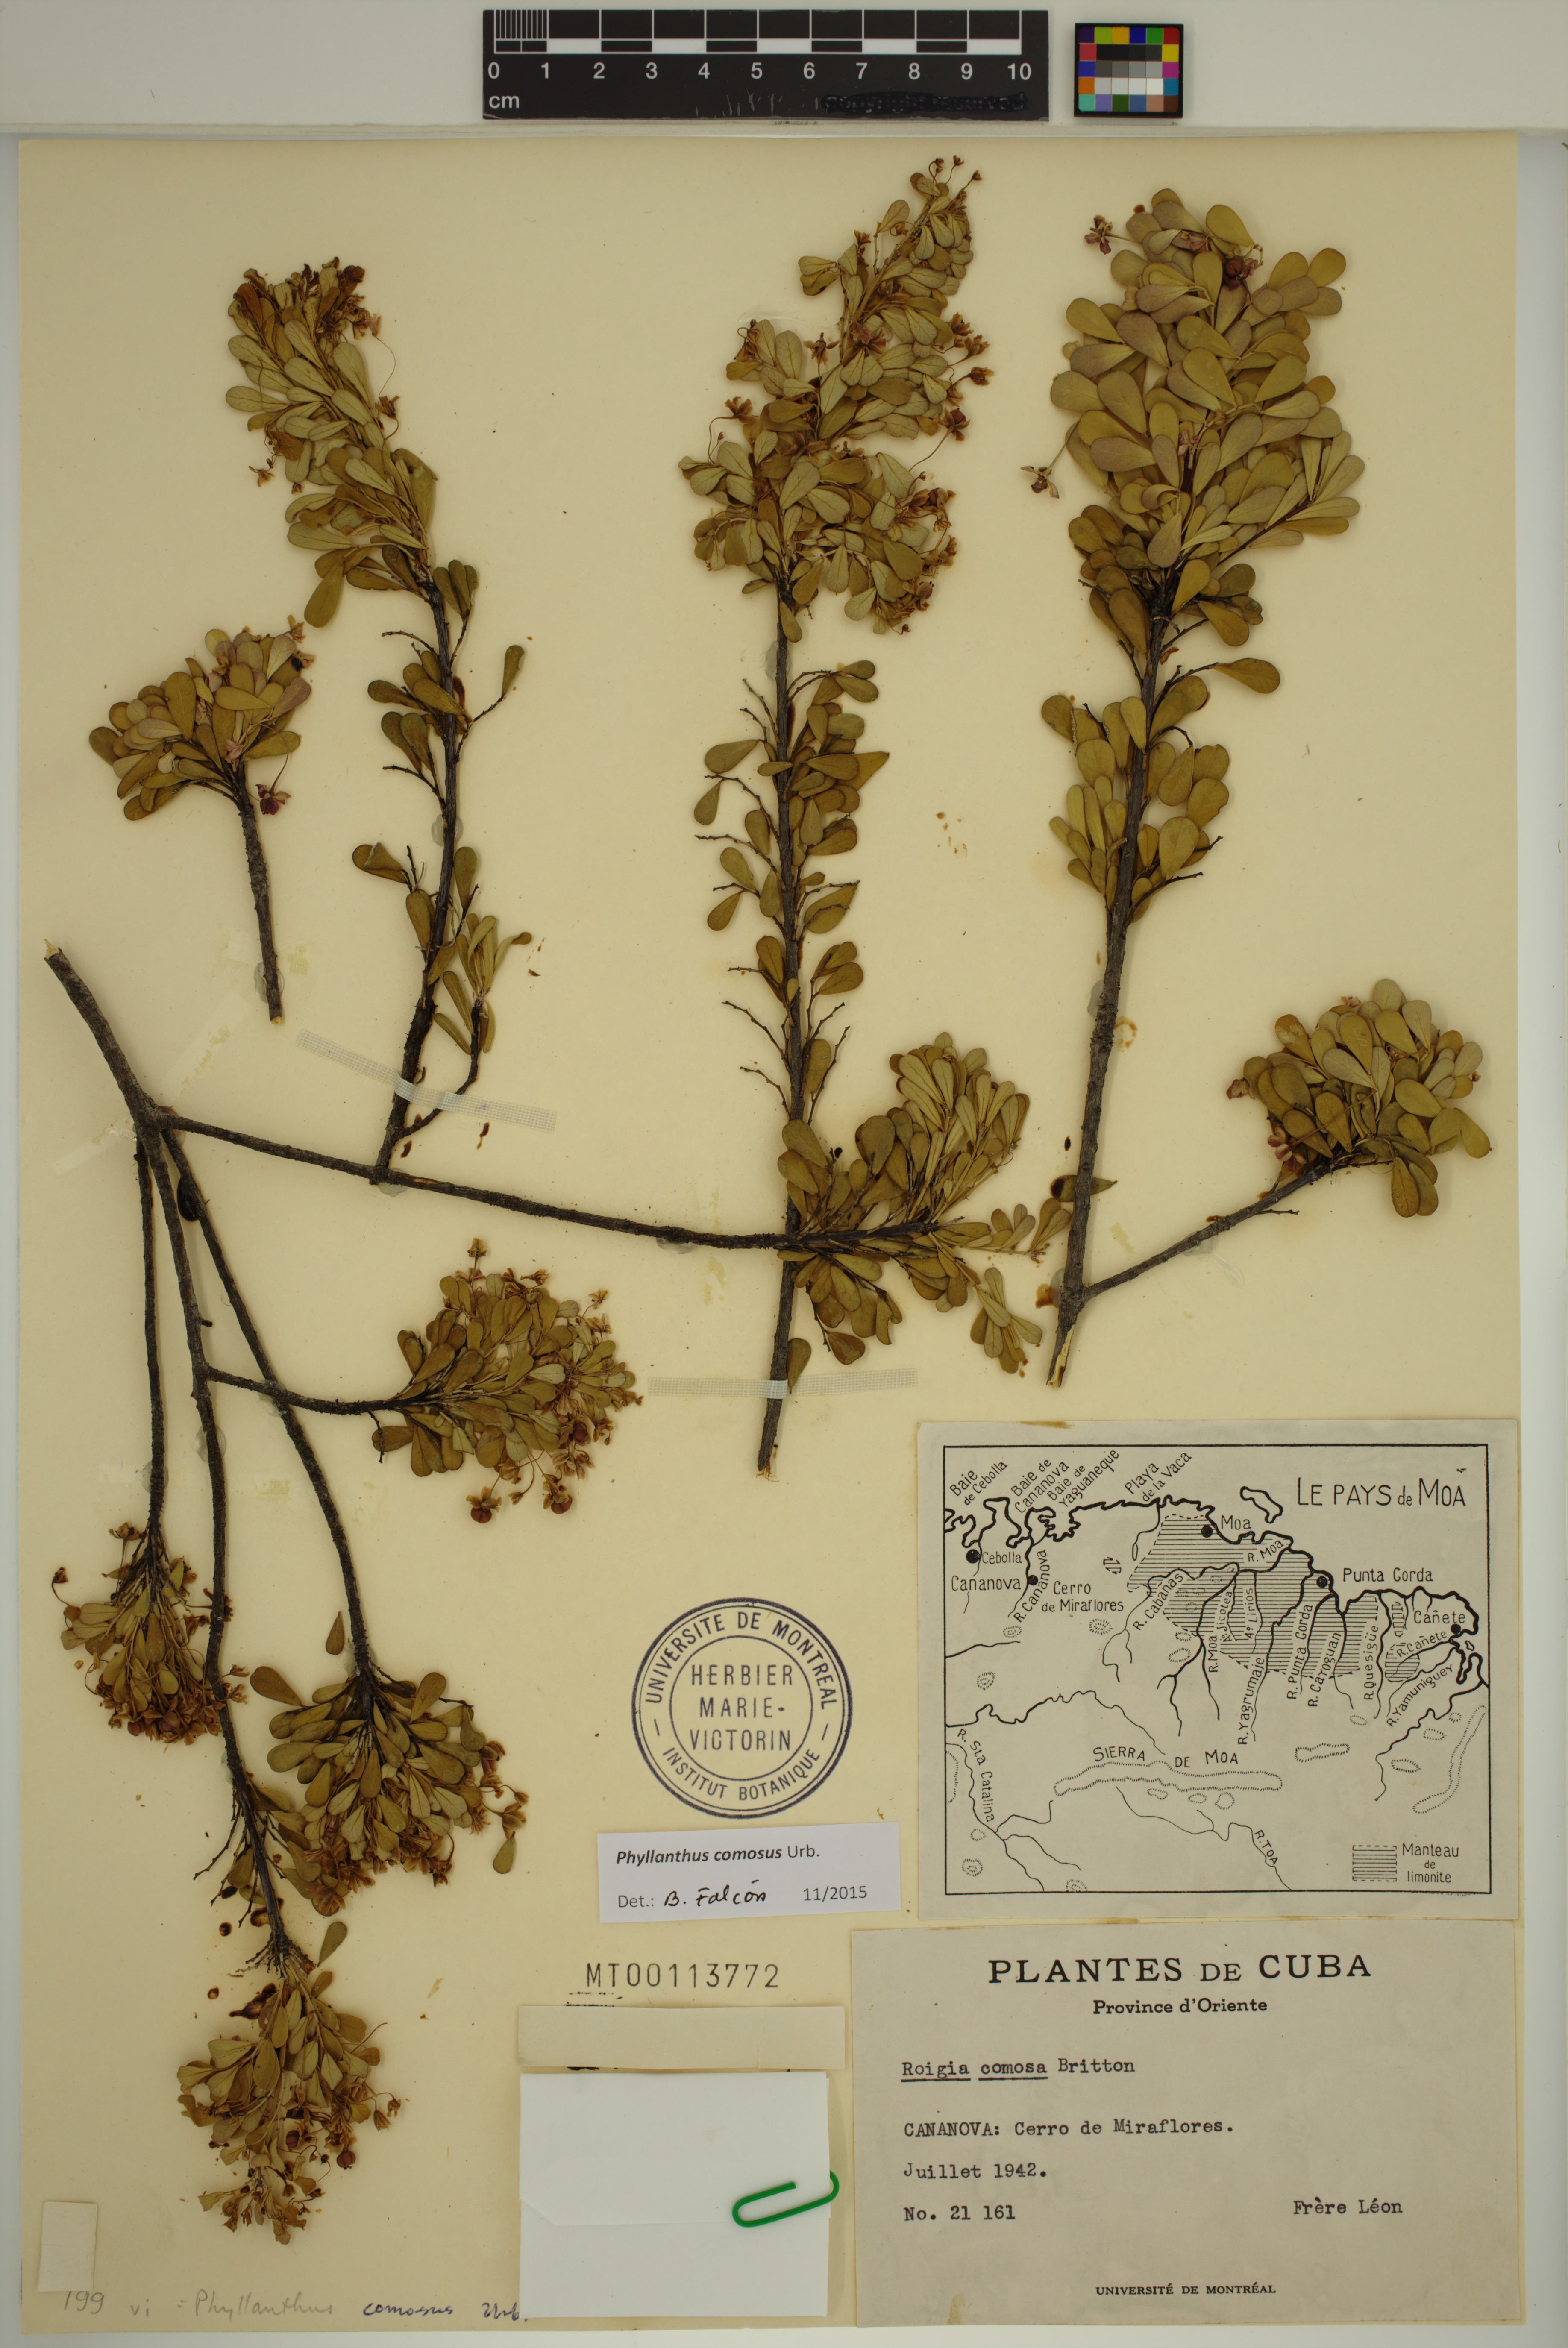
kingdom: Plantae
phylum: Tracheophyta
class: Magnoliopsida
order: Malpighiales
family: Phyllanthaceae
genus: Phyllanthus
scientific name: Phyllanthus comosus
